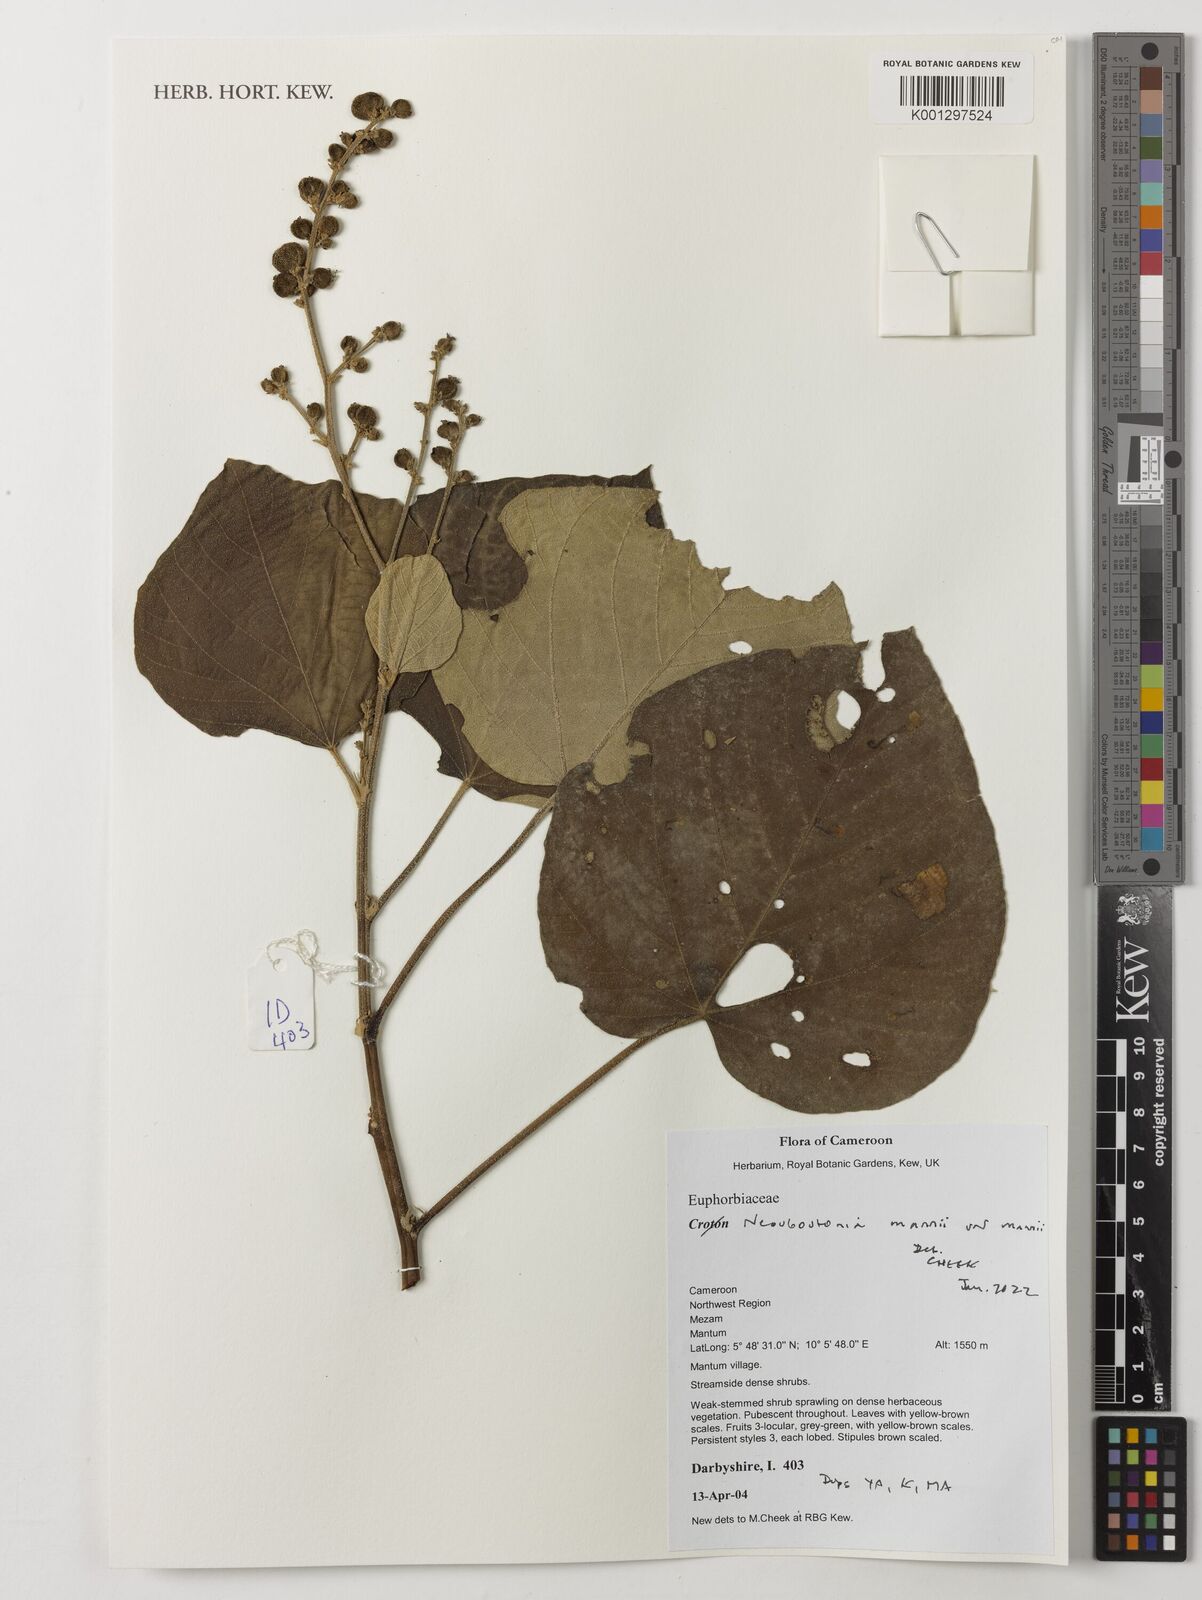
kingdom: Plantae
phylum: Tracheophyta
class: Magnoliopsida
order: Malpighiales
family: Euphorbiaceae
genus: Neoboutonia
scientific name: Neoboutonia mannii
